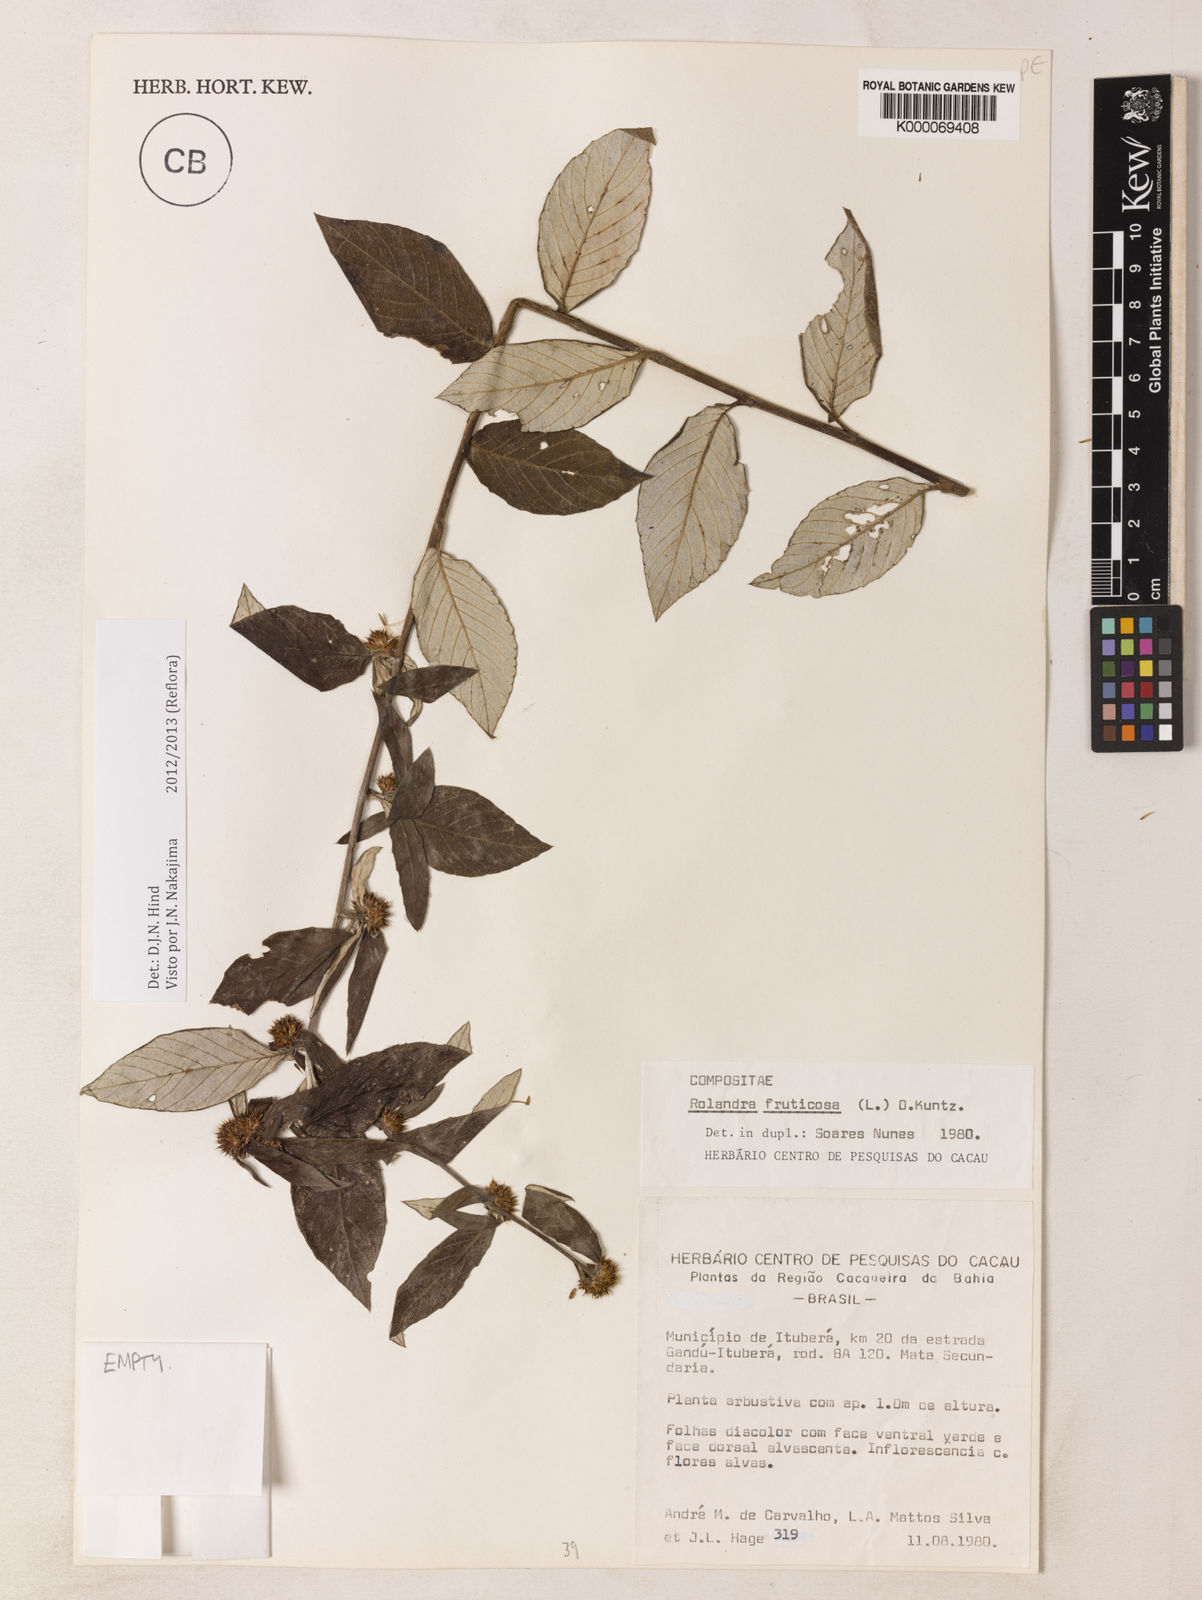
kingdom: Plantae
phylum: Tracheophyta
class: Magnoliopsida
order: Asterales
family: Asteraceae
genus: Rolandra
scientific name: Rolandra fruticosa
